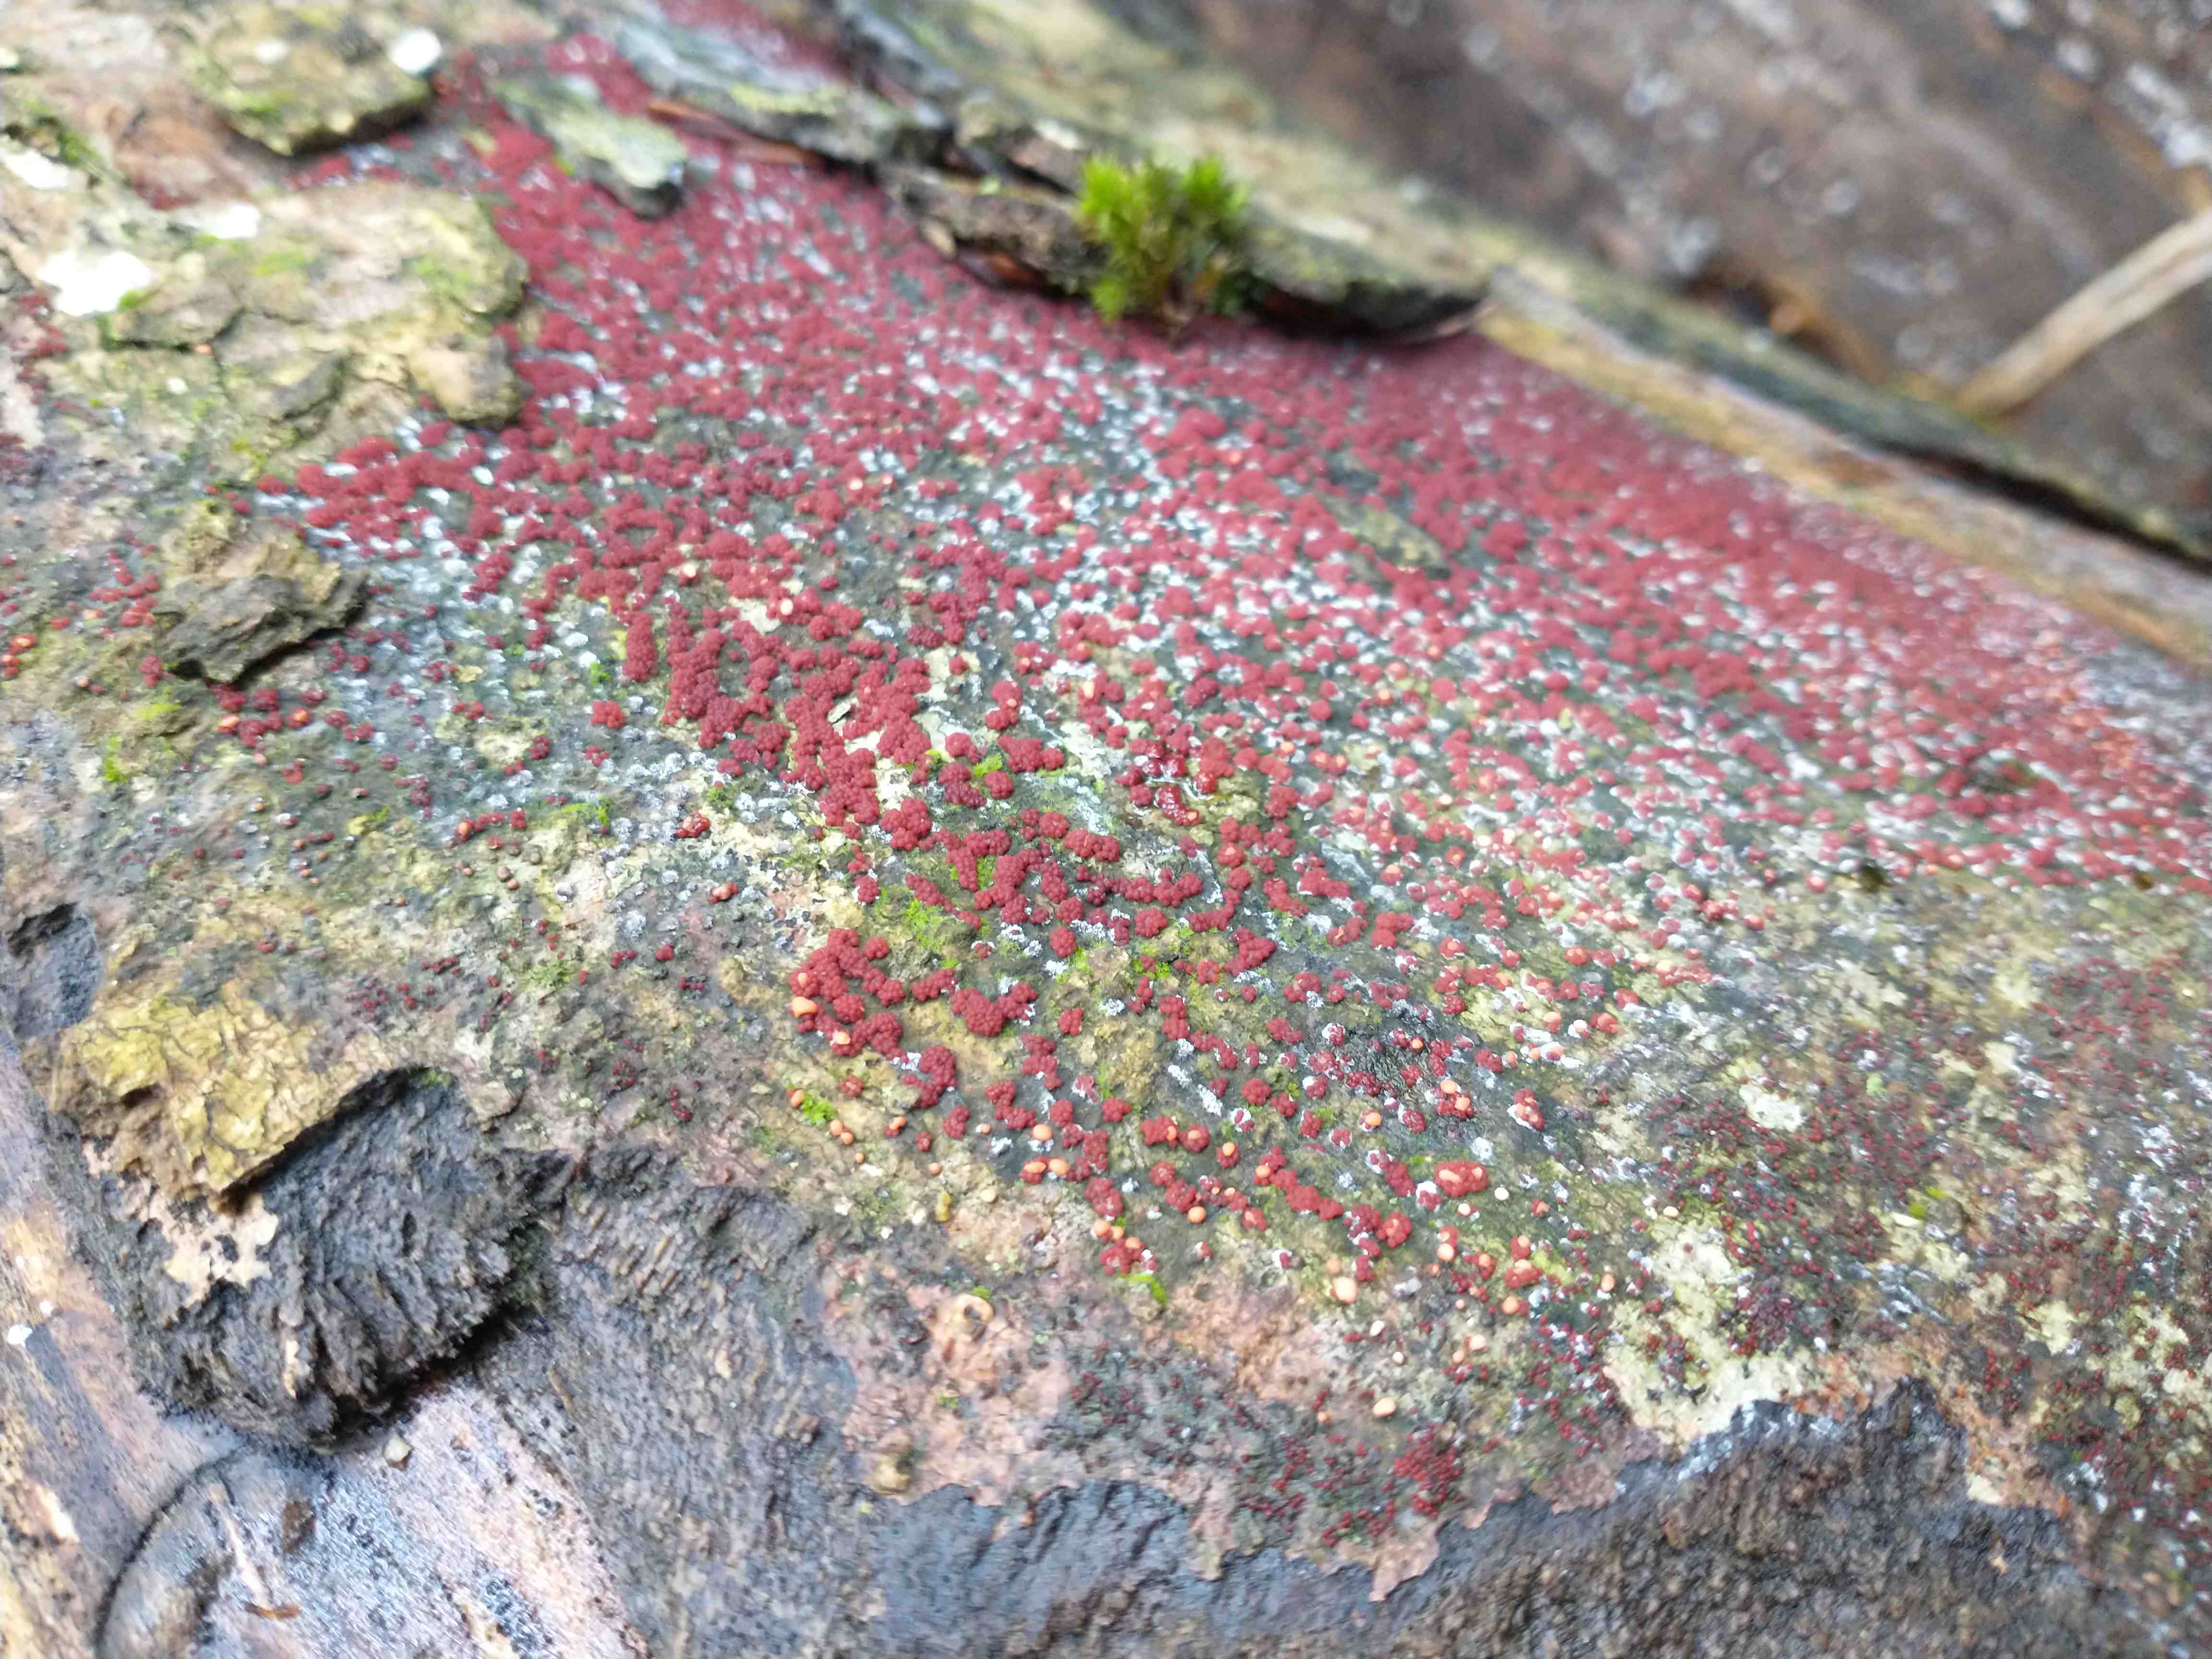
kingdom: Fungi
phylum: Ascomycota
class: Sordariomycetes
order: Hypocreales
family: Nectriaceae
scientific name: Nectriaceae
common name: cinnobersvampfamilien
